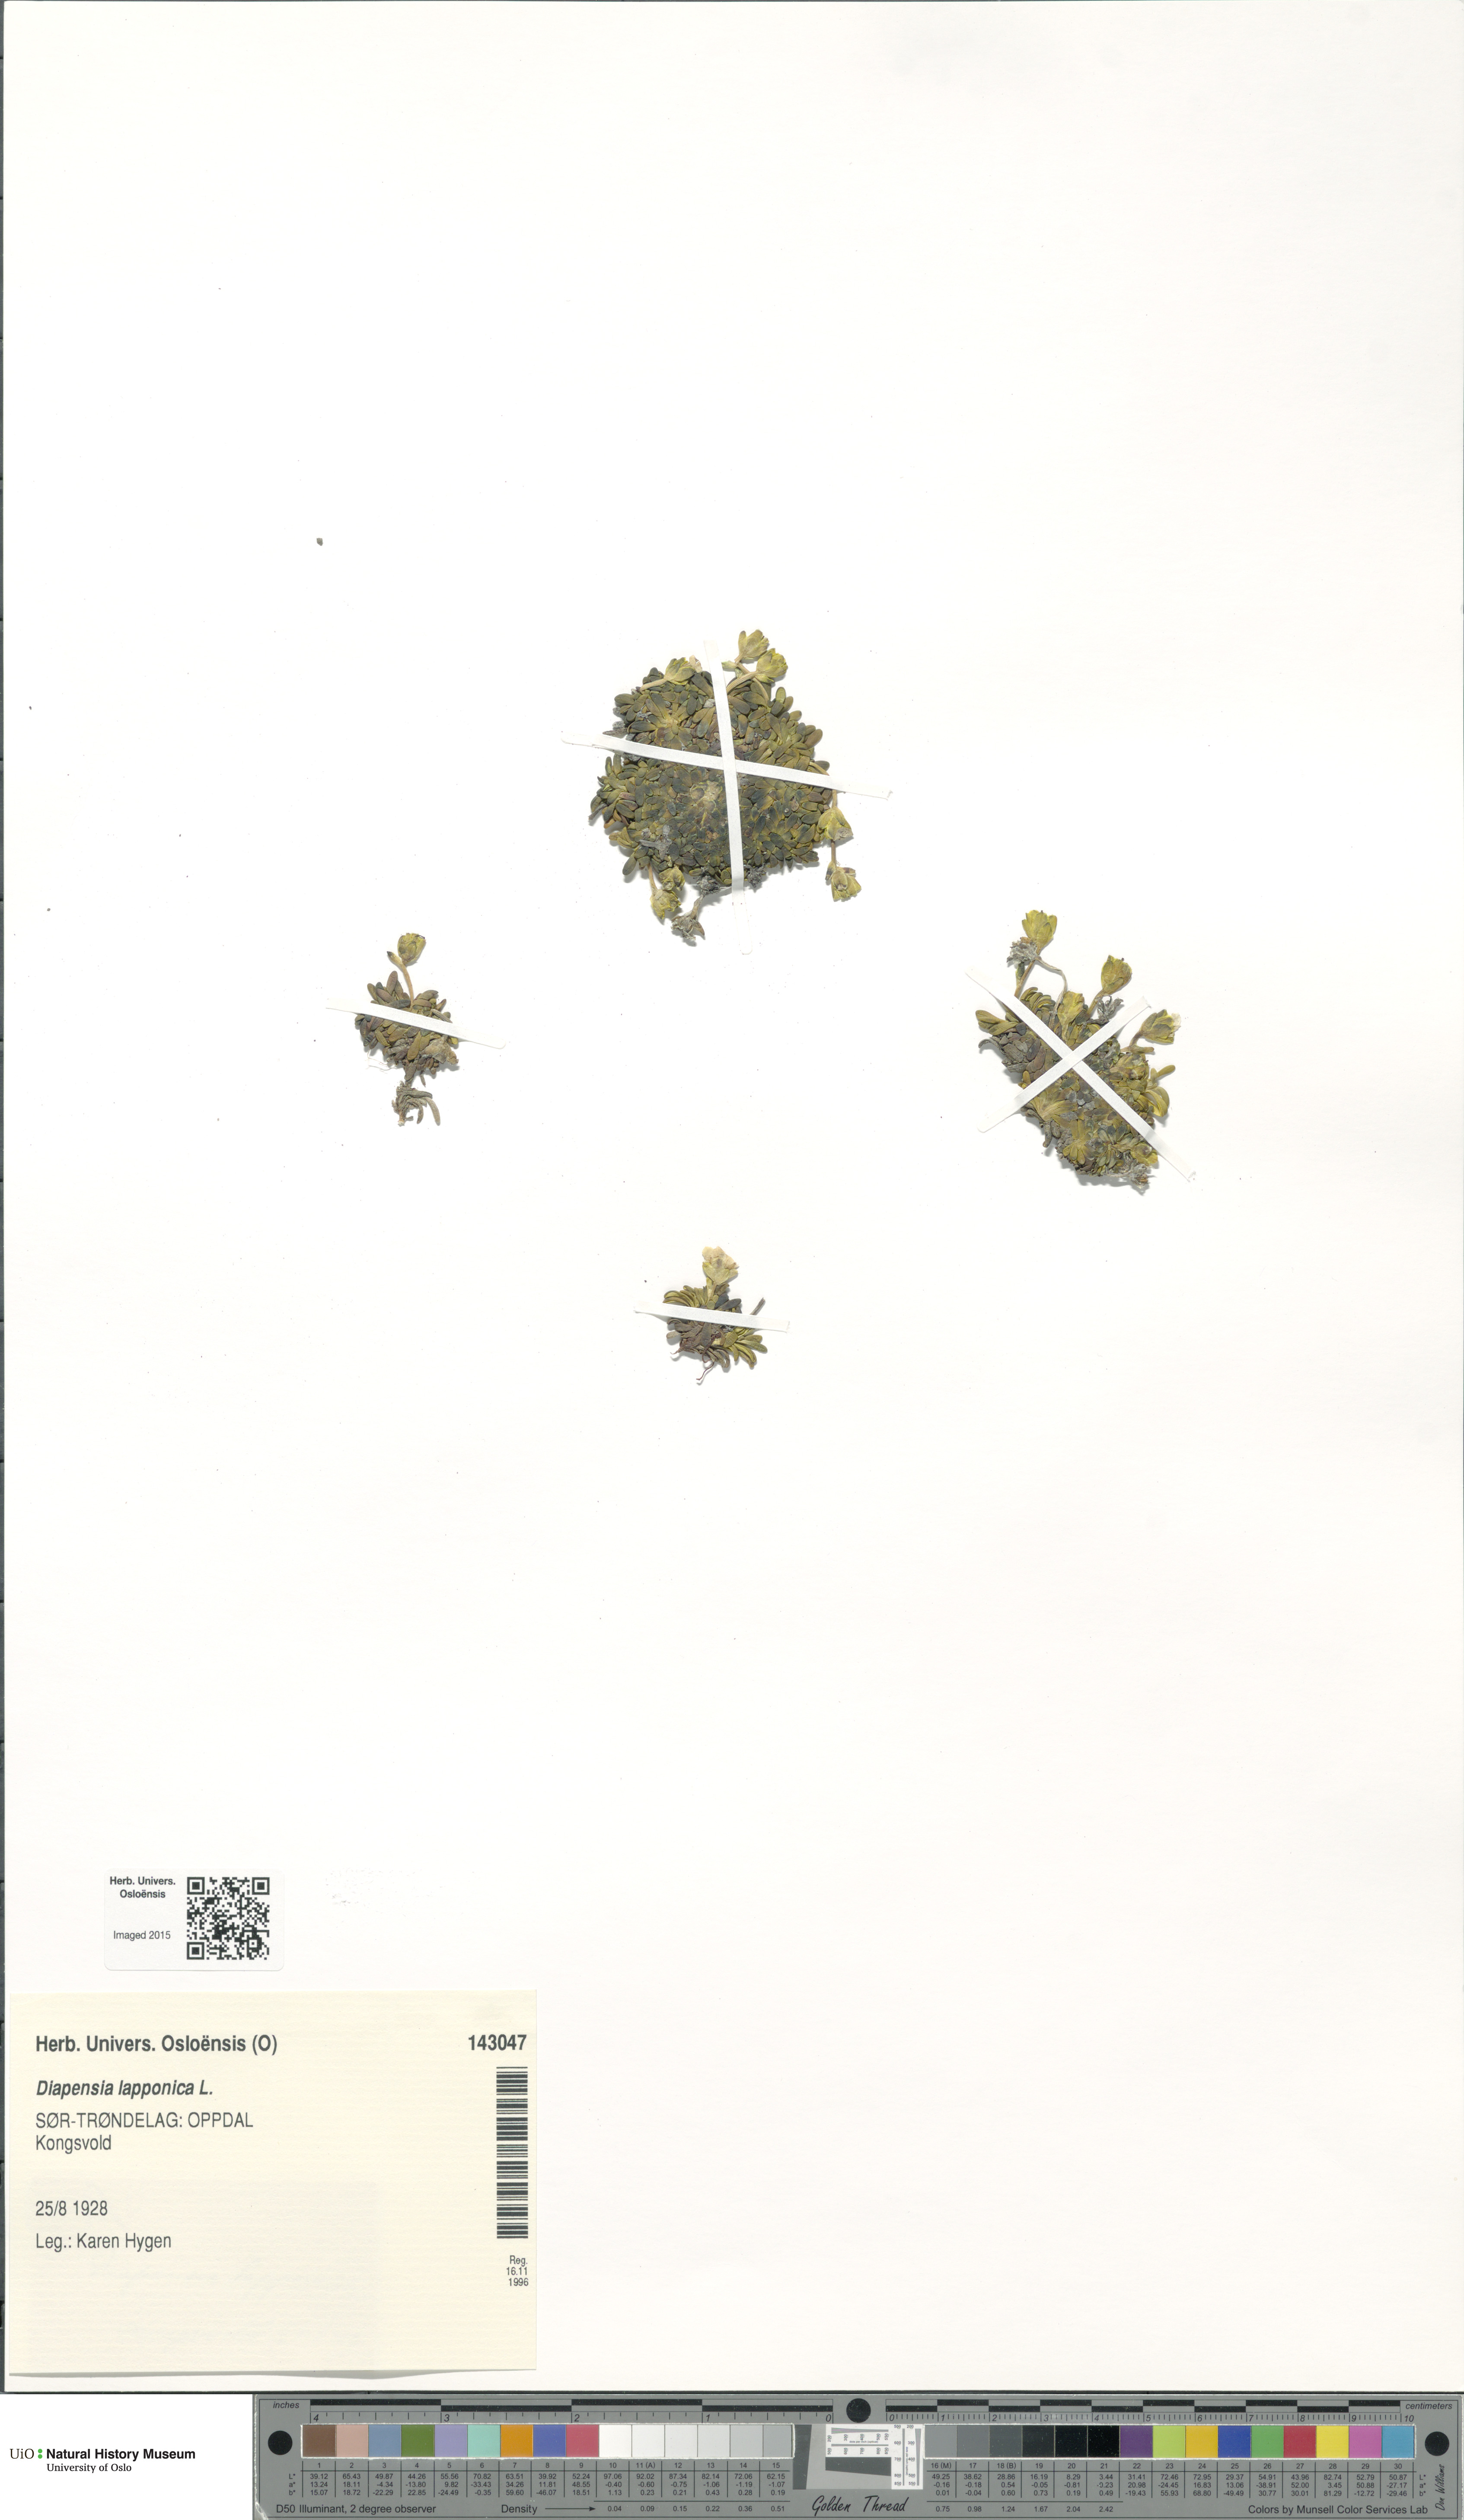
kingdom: Plantae
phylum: Tracheophyta
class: Magnoliopsida
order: Ericales
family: Diapensiaceae
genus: Diapensia
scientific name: Diapensia lapponica
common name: Diapensia
